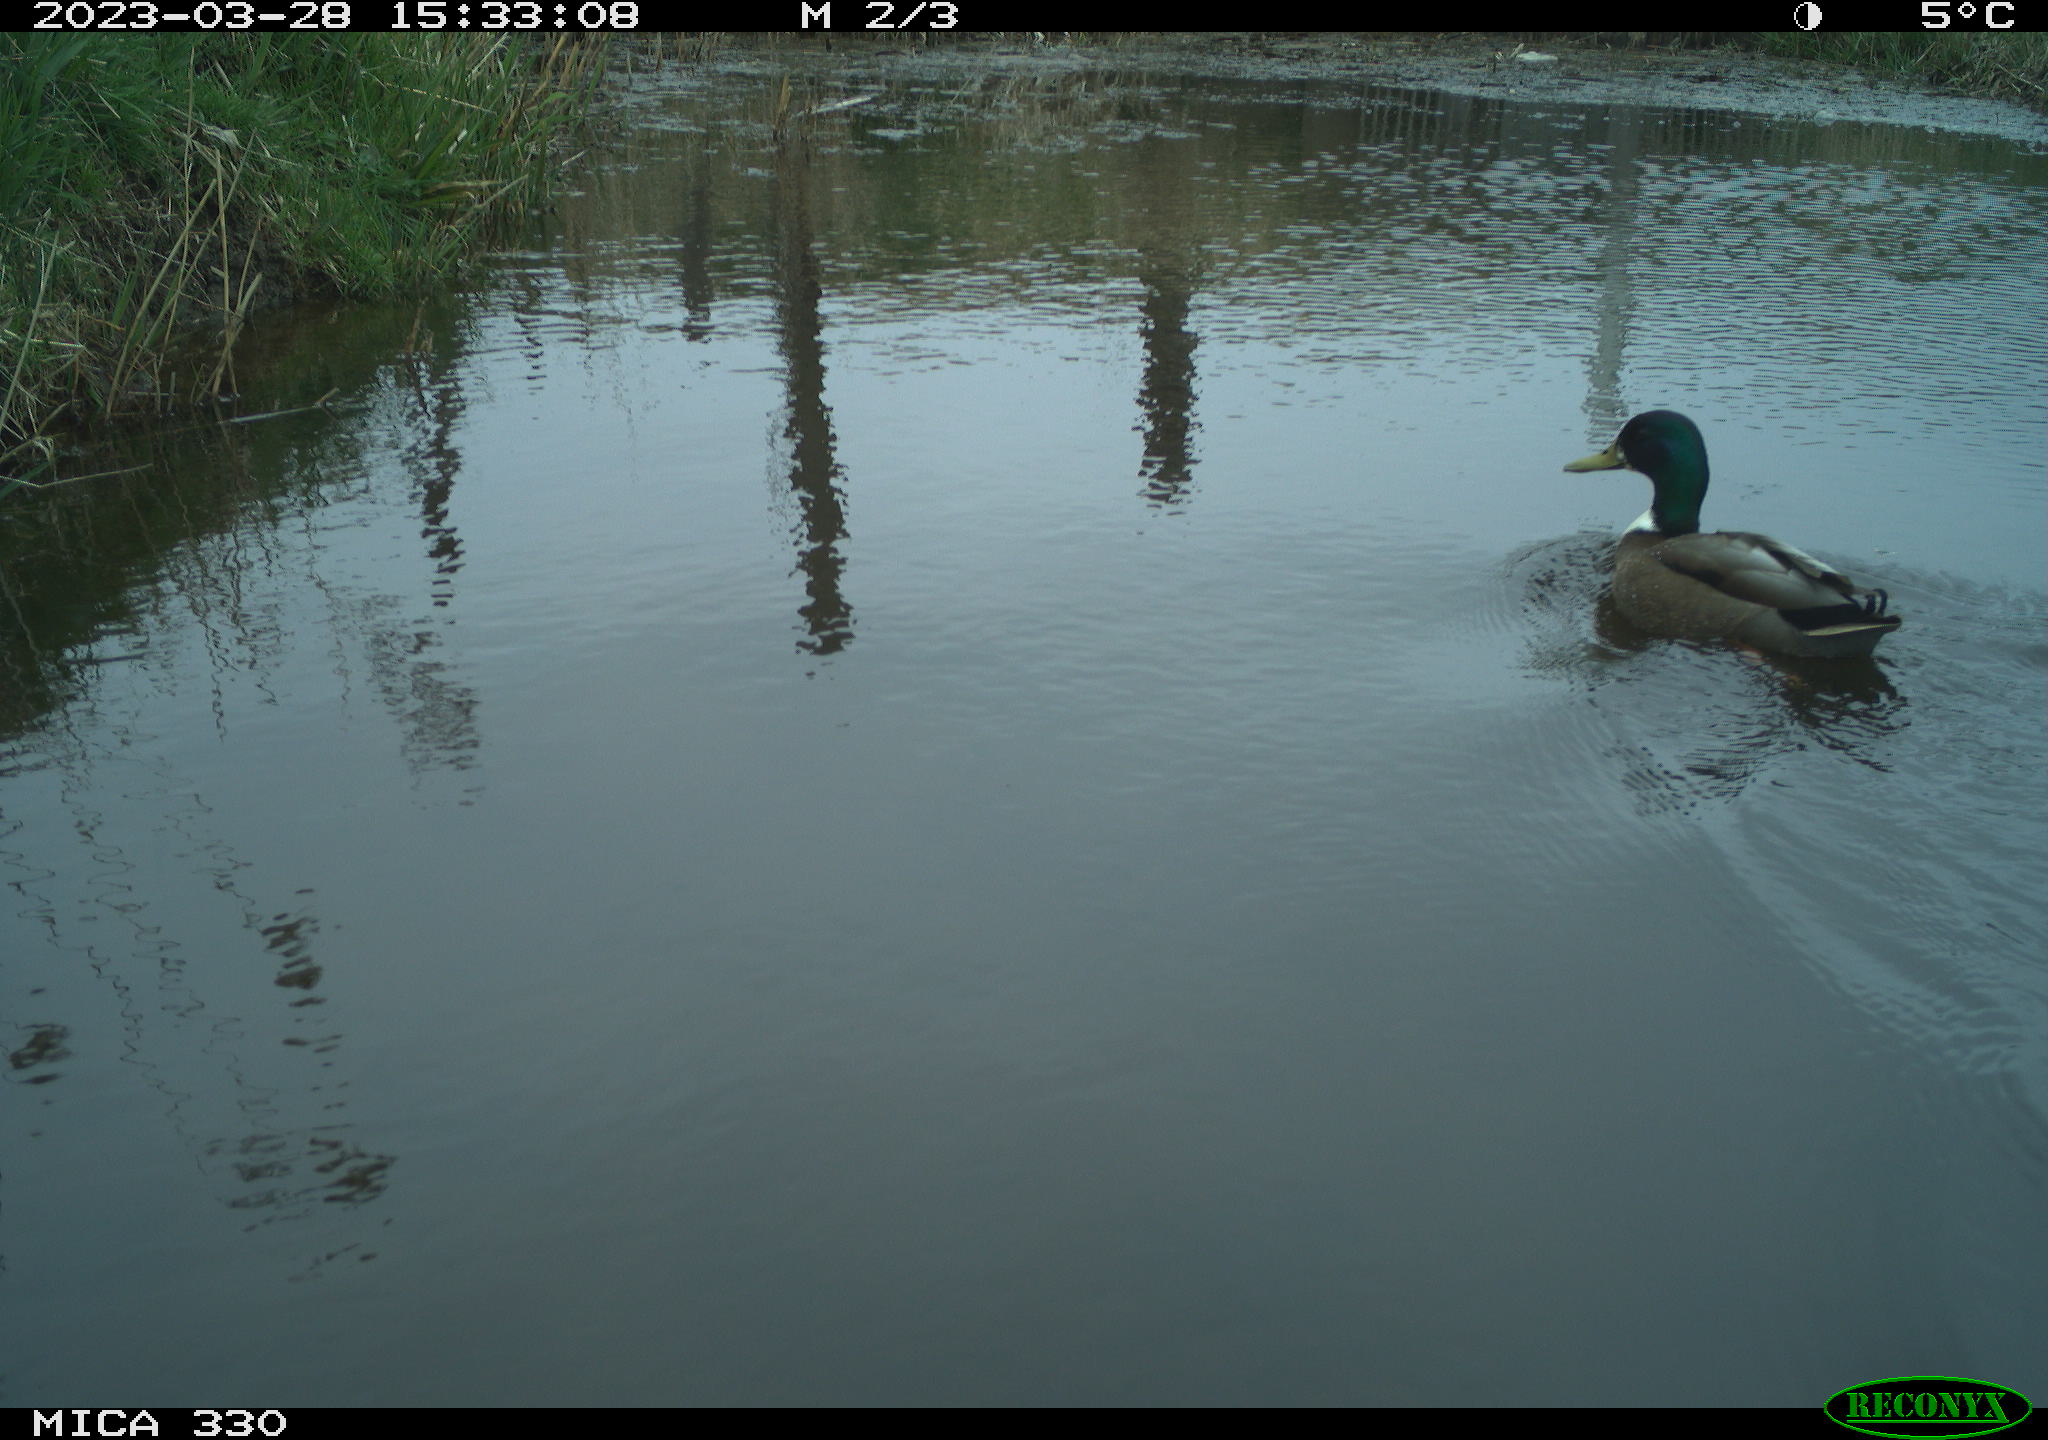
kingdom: Animalia
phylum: Chordata
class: Aves
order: Anseriformes
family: Anatidae
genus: Anas
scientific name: Anas
